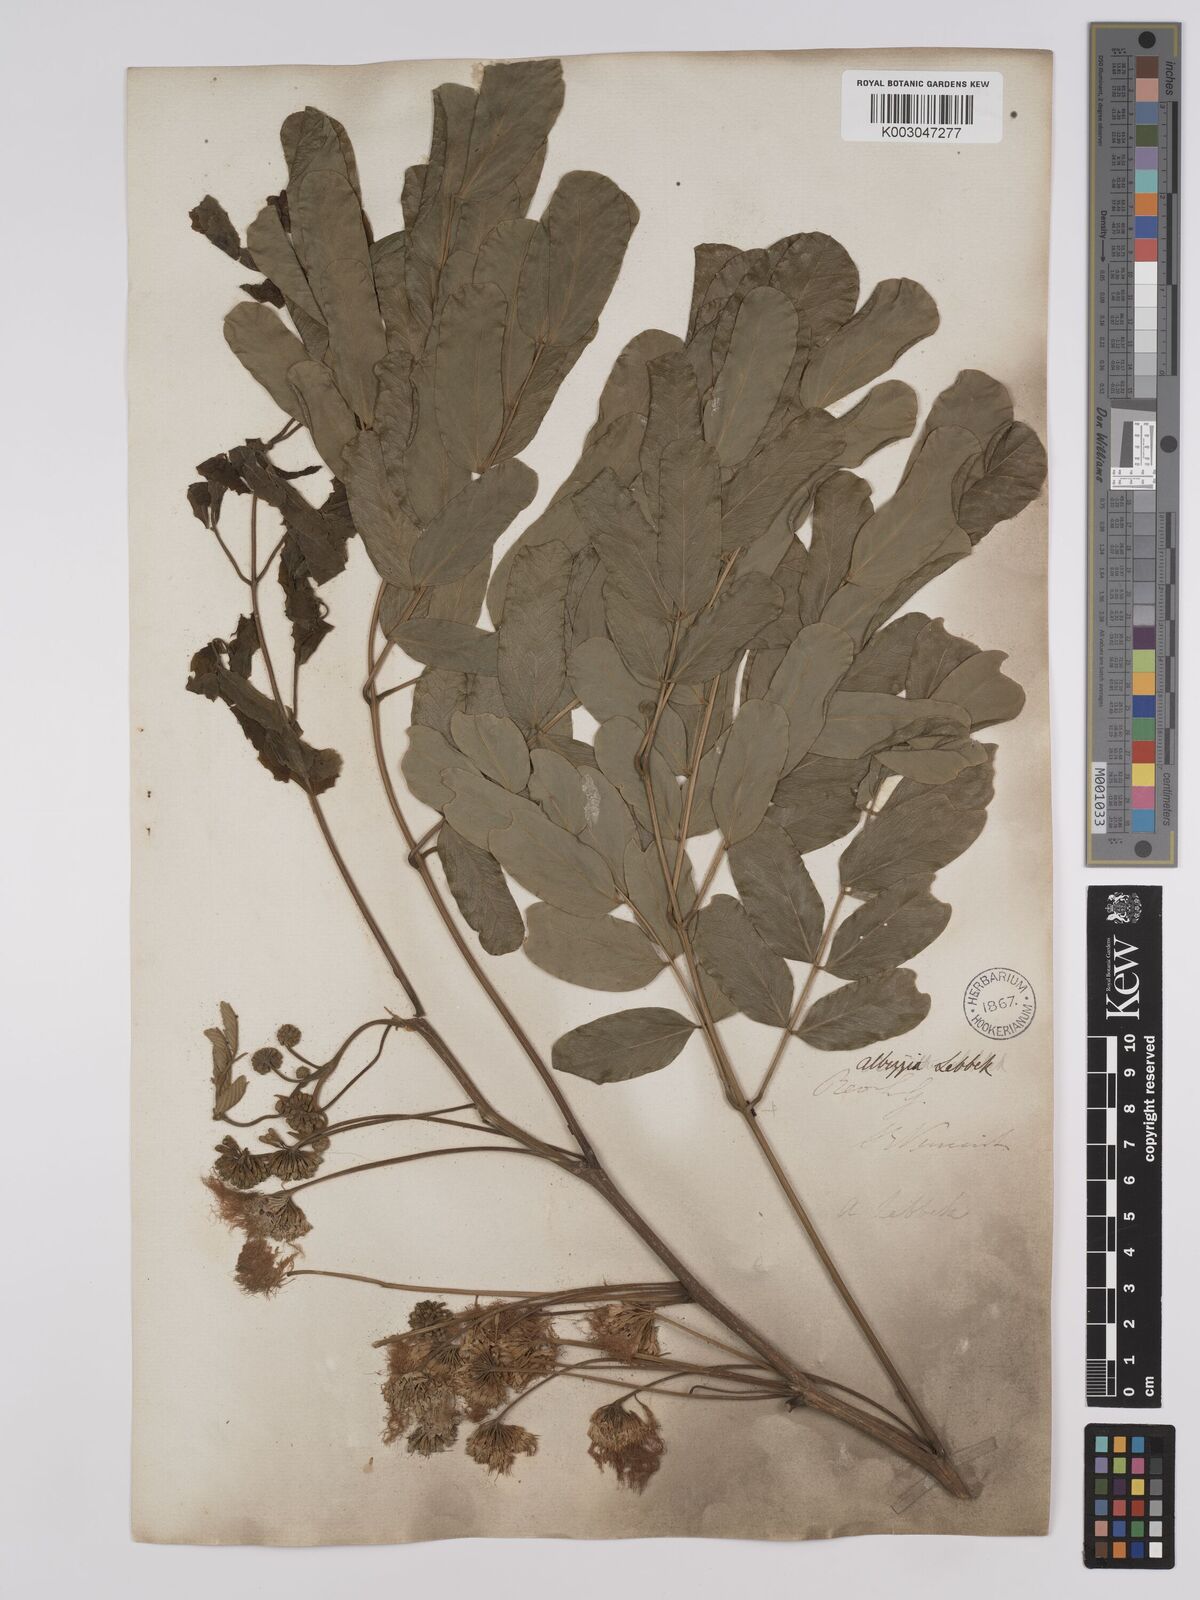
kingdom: Plantae
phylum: Tracheophyta
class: Magnoliopsida
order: Fabales
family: Fabaceae
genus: Albizia
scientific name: Albizia lebbeck
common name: Woman's tongue
